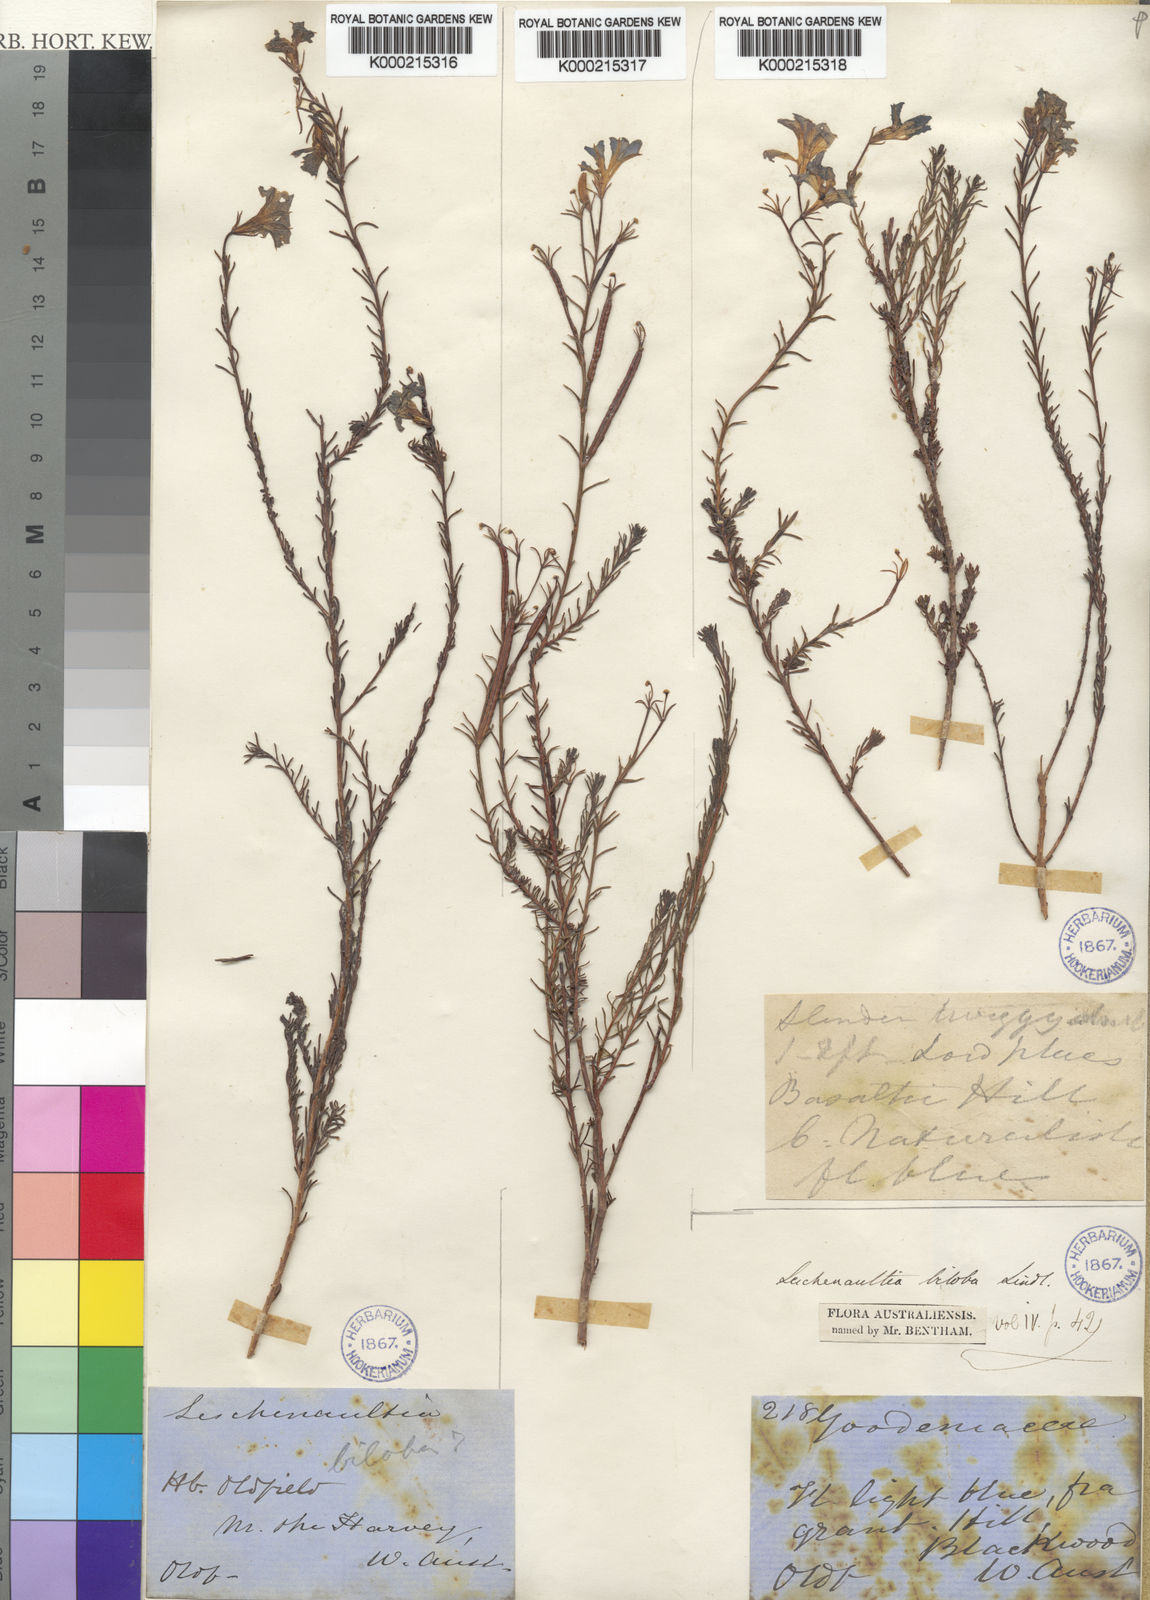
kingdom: Plantae
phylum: Tracheophyta
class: Magnoliopsida
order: Asterales
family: Goodeniaceae
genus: Leschenaultia
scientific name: Leschenaultia biloba
